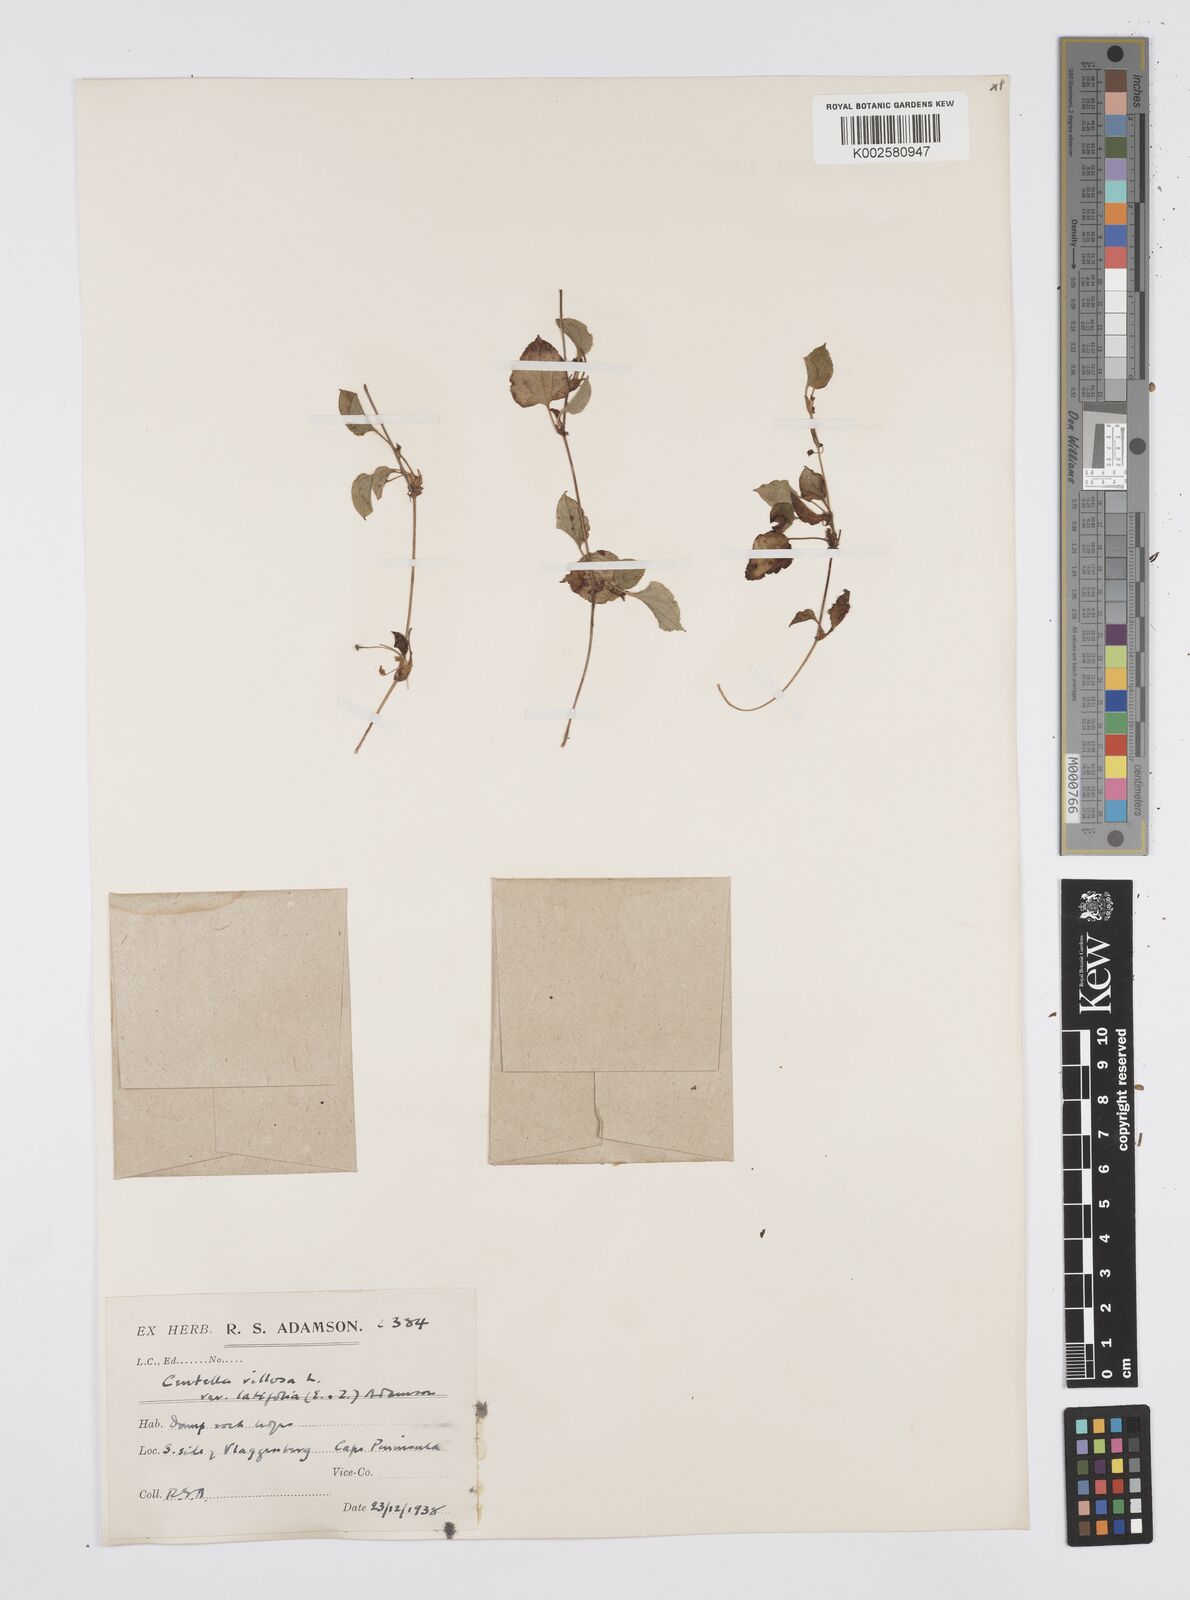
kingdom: Plantae
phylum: Tracheophyta
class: Magnoliopsida
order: Apiales
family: Apiaceae
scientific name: Apiaceae
